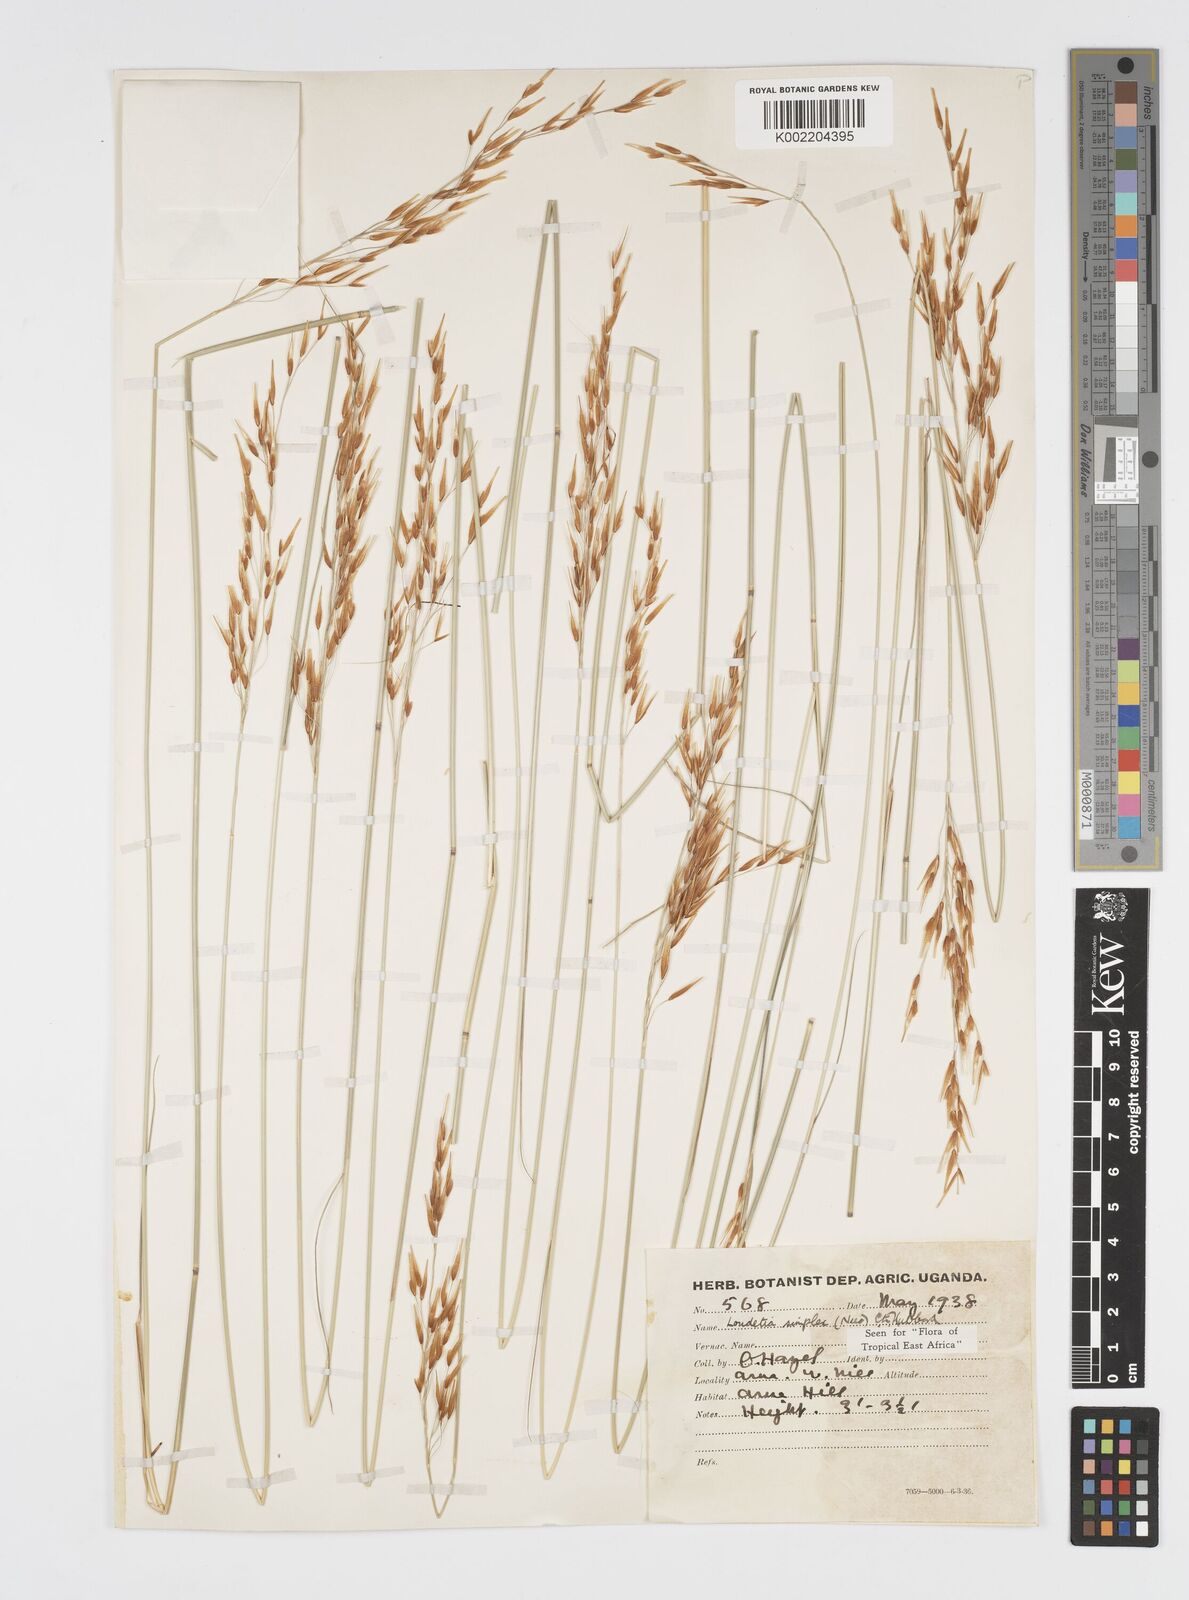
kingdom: Plantae
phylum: Tracheophyta
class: Liliopsida
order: Poales
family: Poaceae
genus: Loudetia
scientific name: Loudetia simplex
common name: Common russet grass
